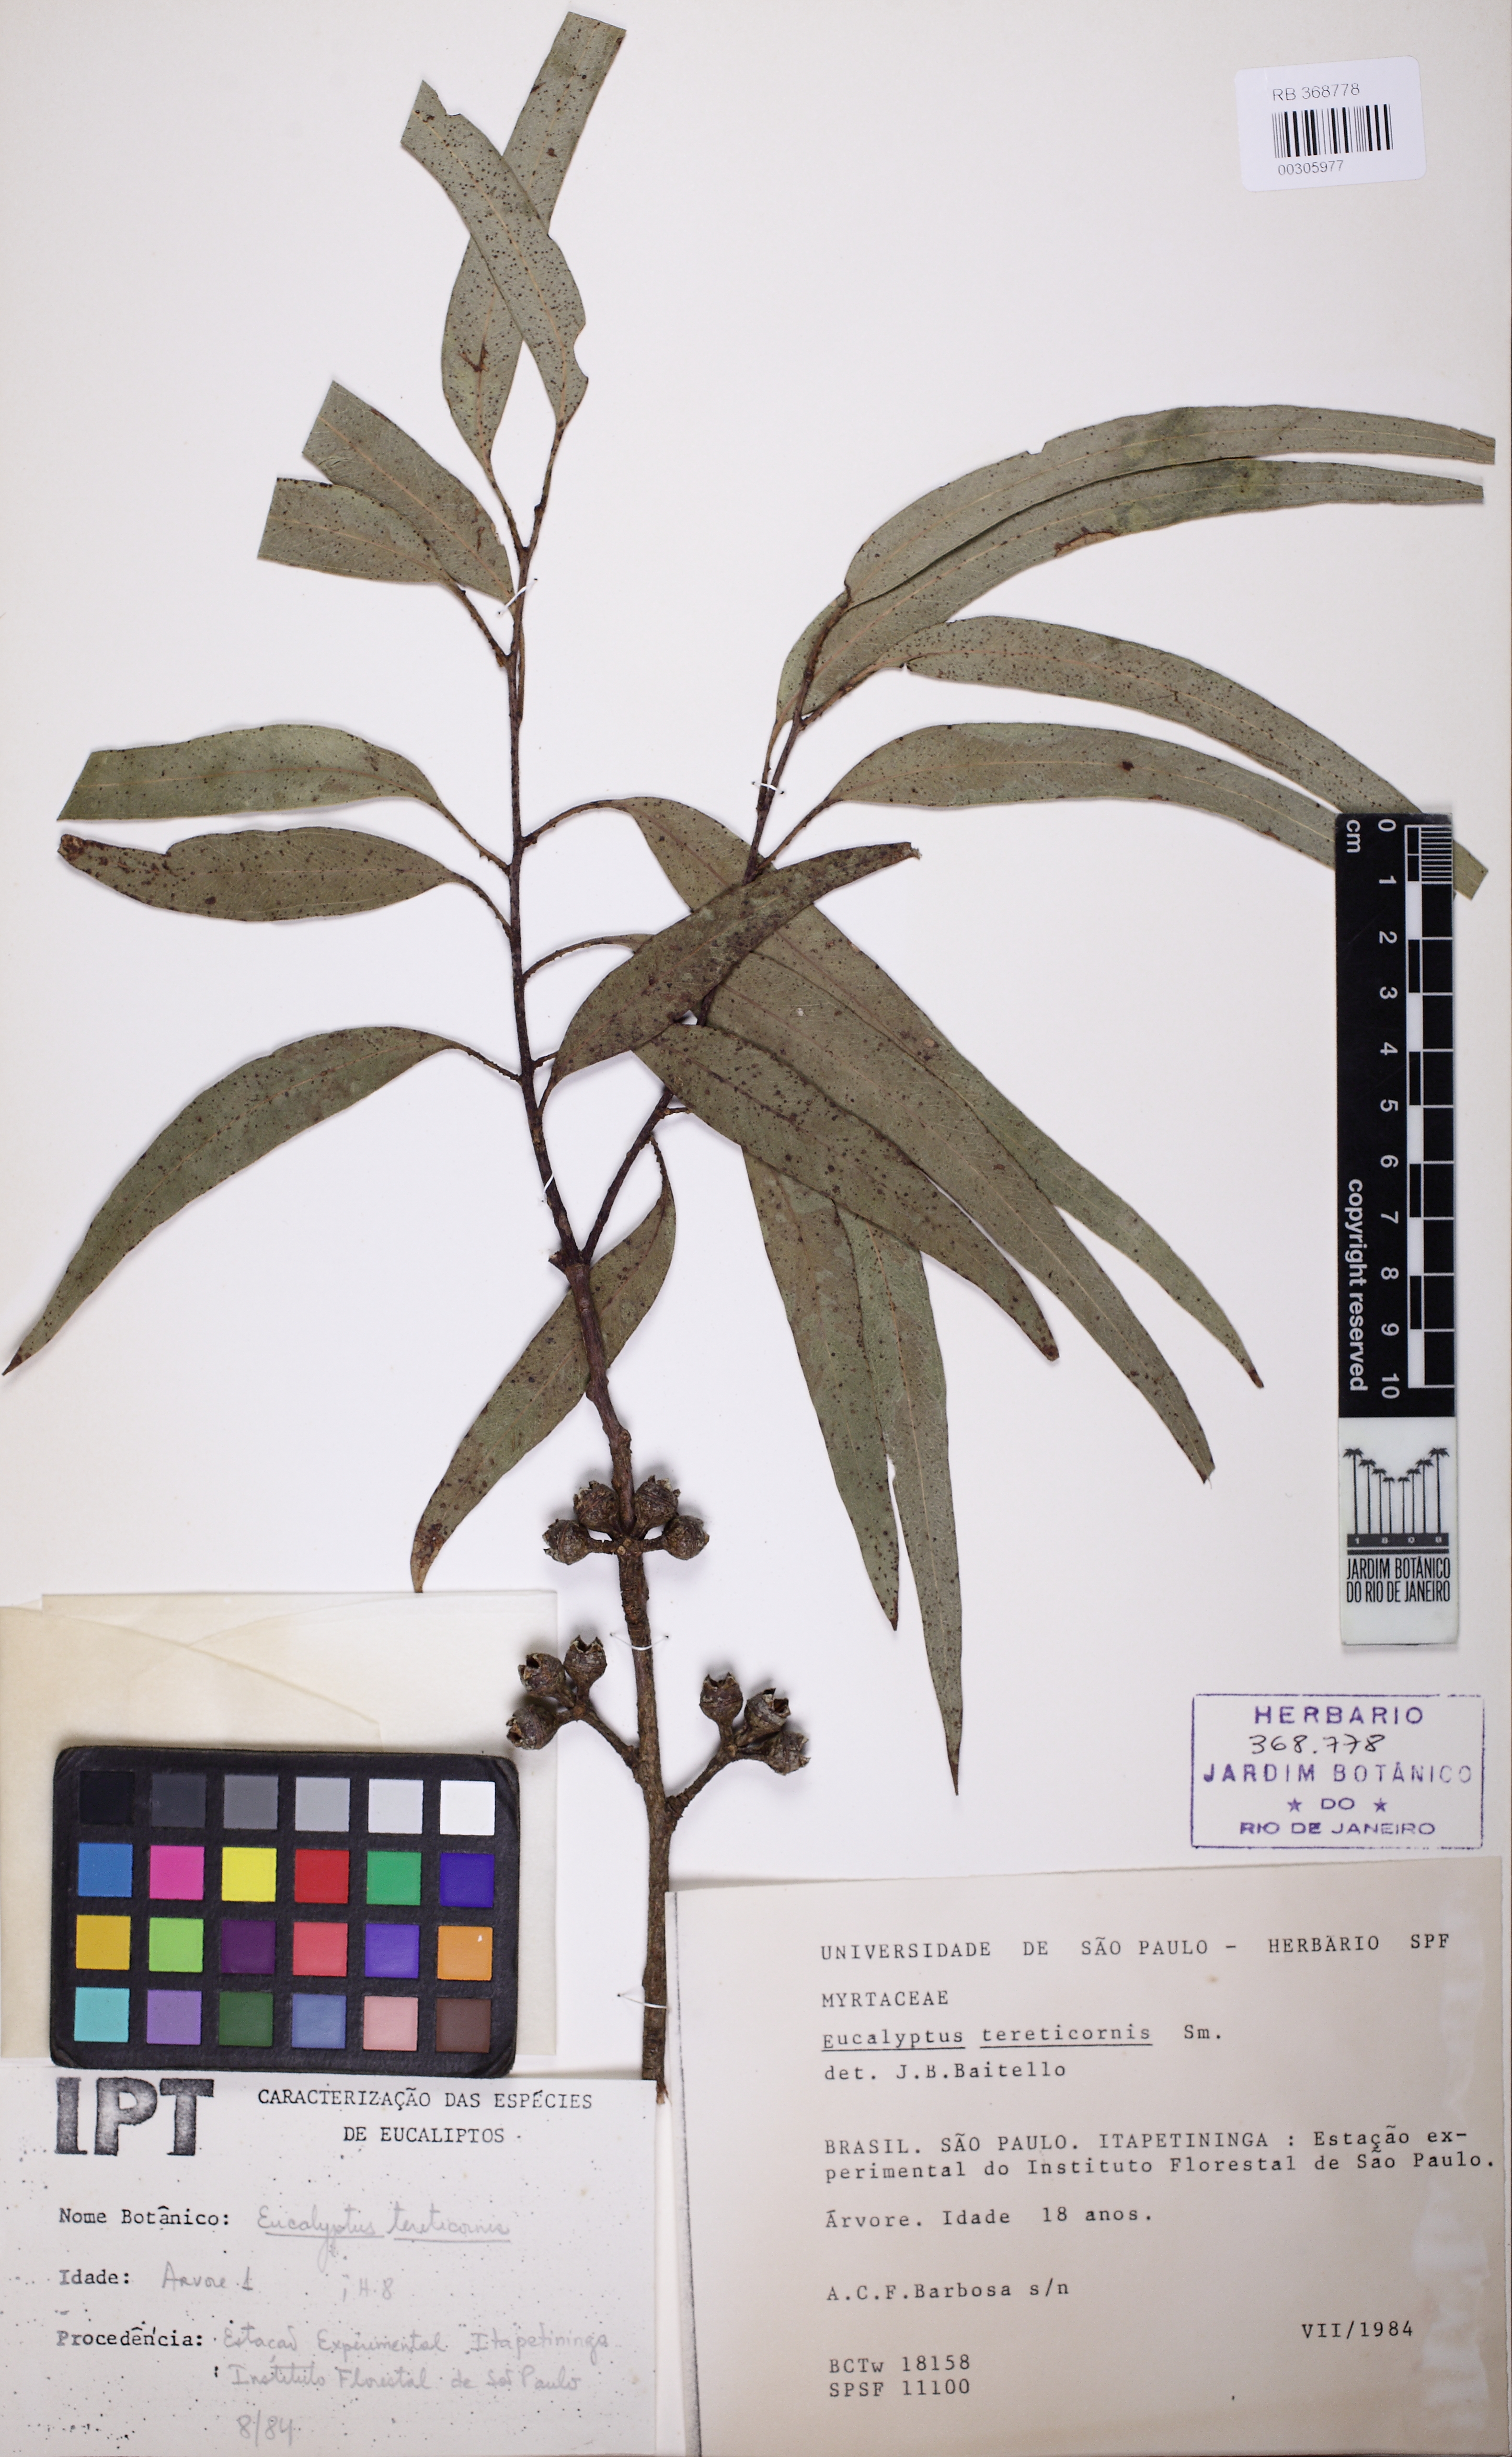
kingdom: Plantae
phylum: Tracheophyta
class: Magnoliopsida
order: Myrtales
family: Myrtaceae
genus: Eucalyptus
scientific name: Eucalyptus tereticornis
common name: Forest redgum
